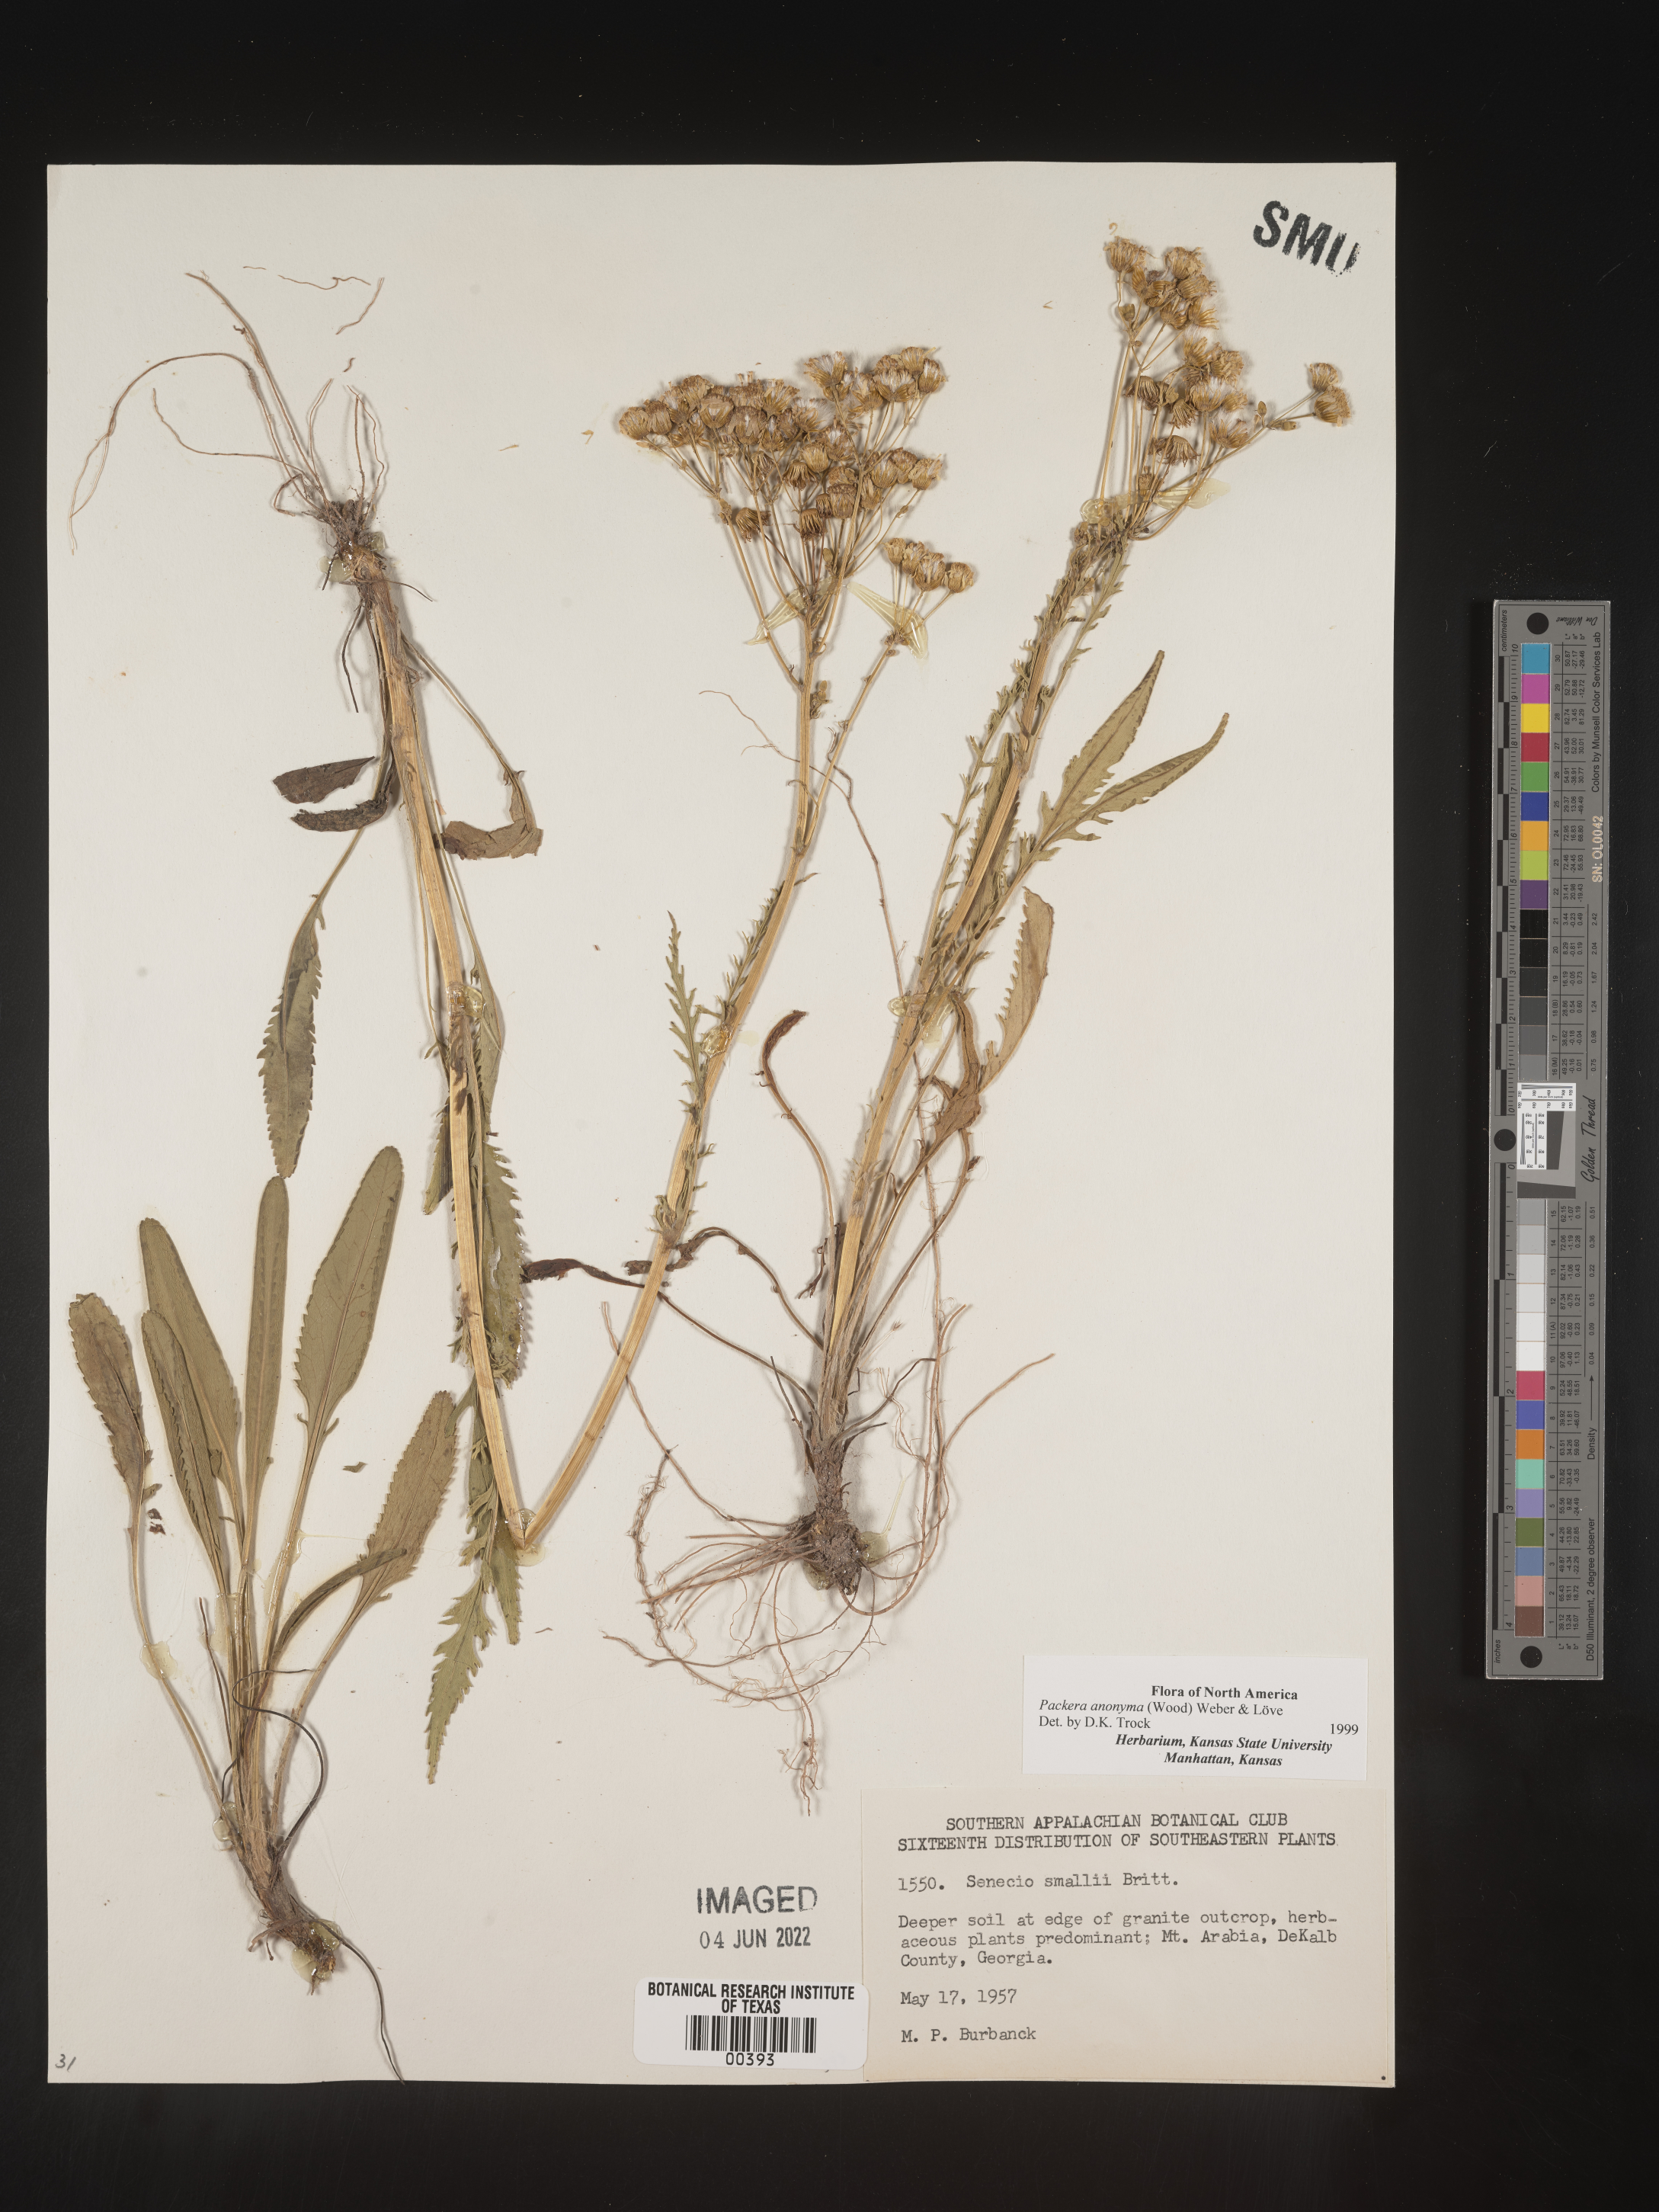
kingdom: Plantae
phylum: Tracheophyta
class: Magnoliopsida
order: Asterales
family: Asteraceae
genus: Packera
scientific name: Packera anonyma
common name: Small ragwort
